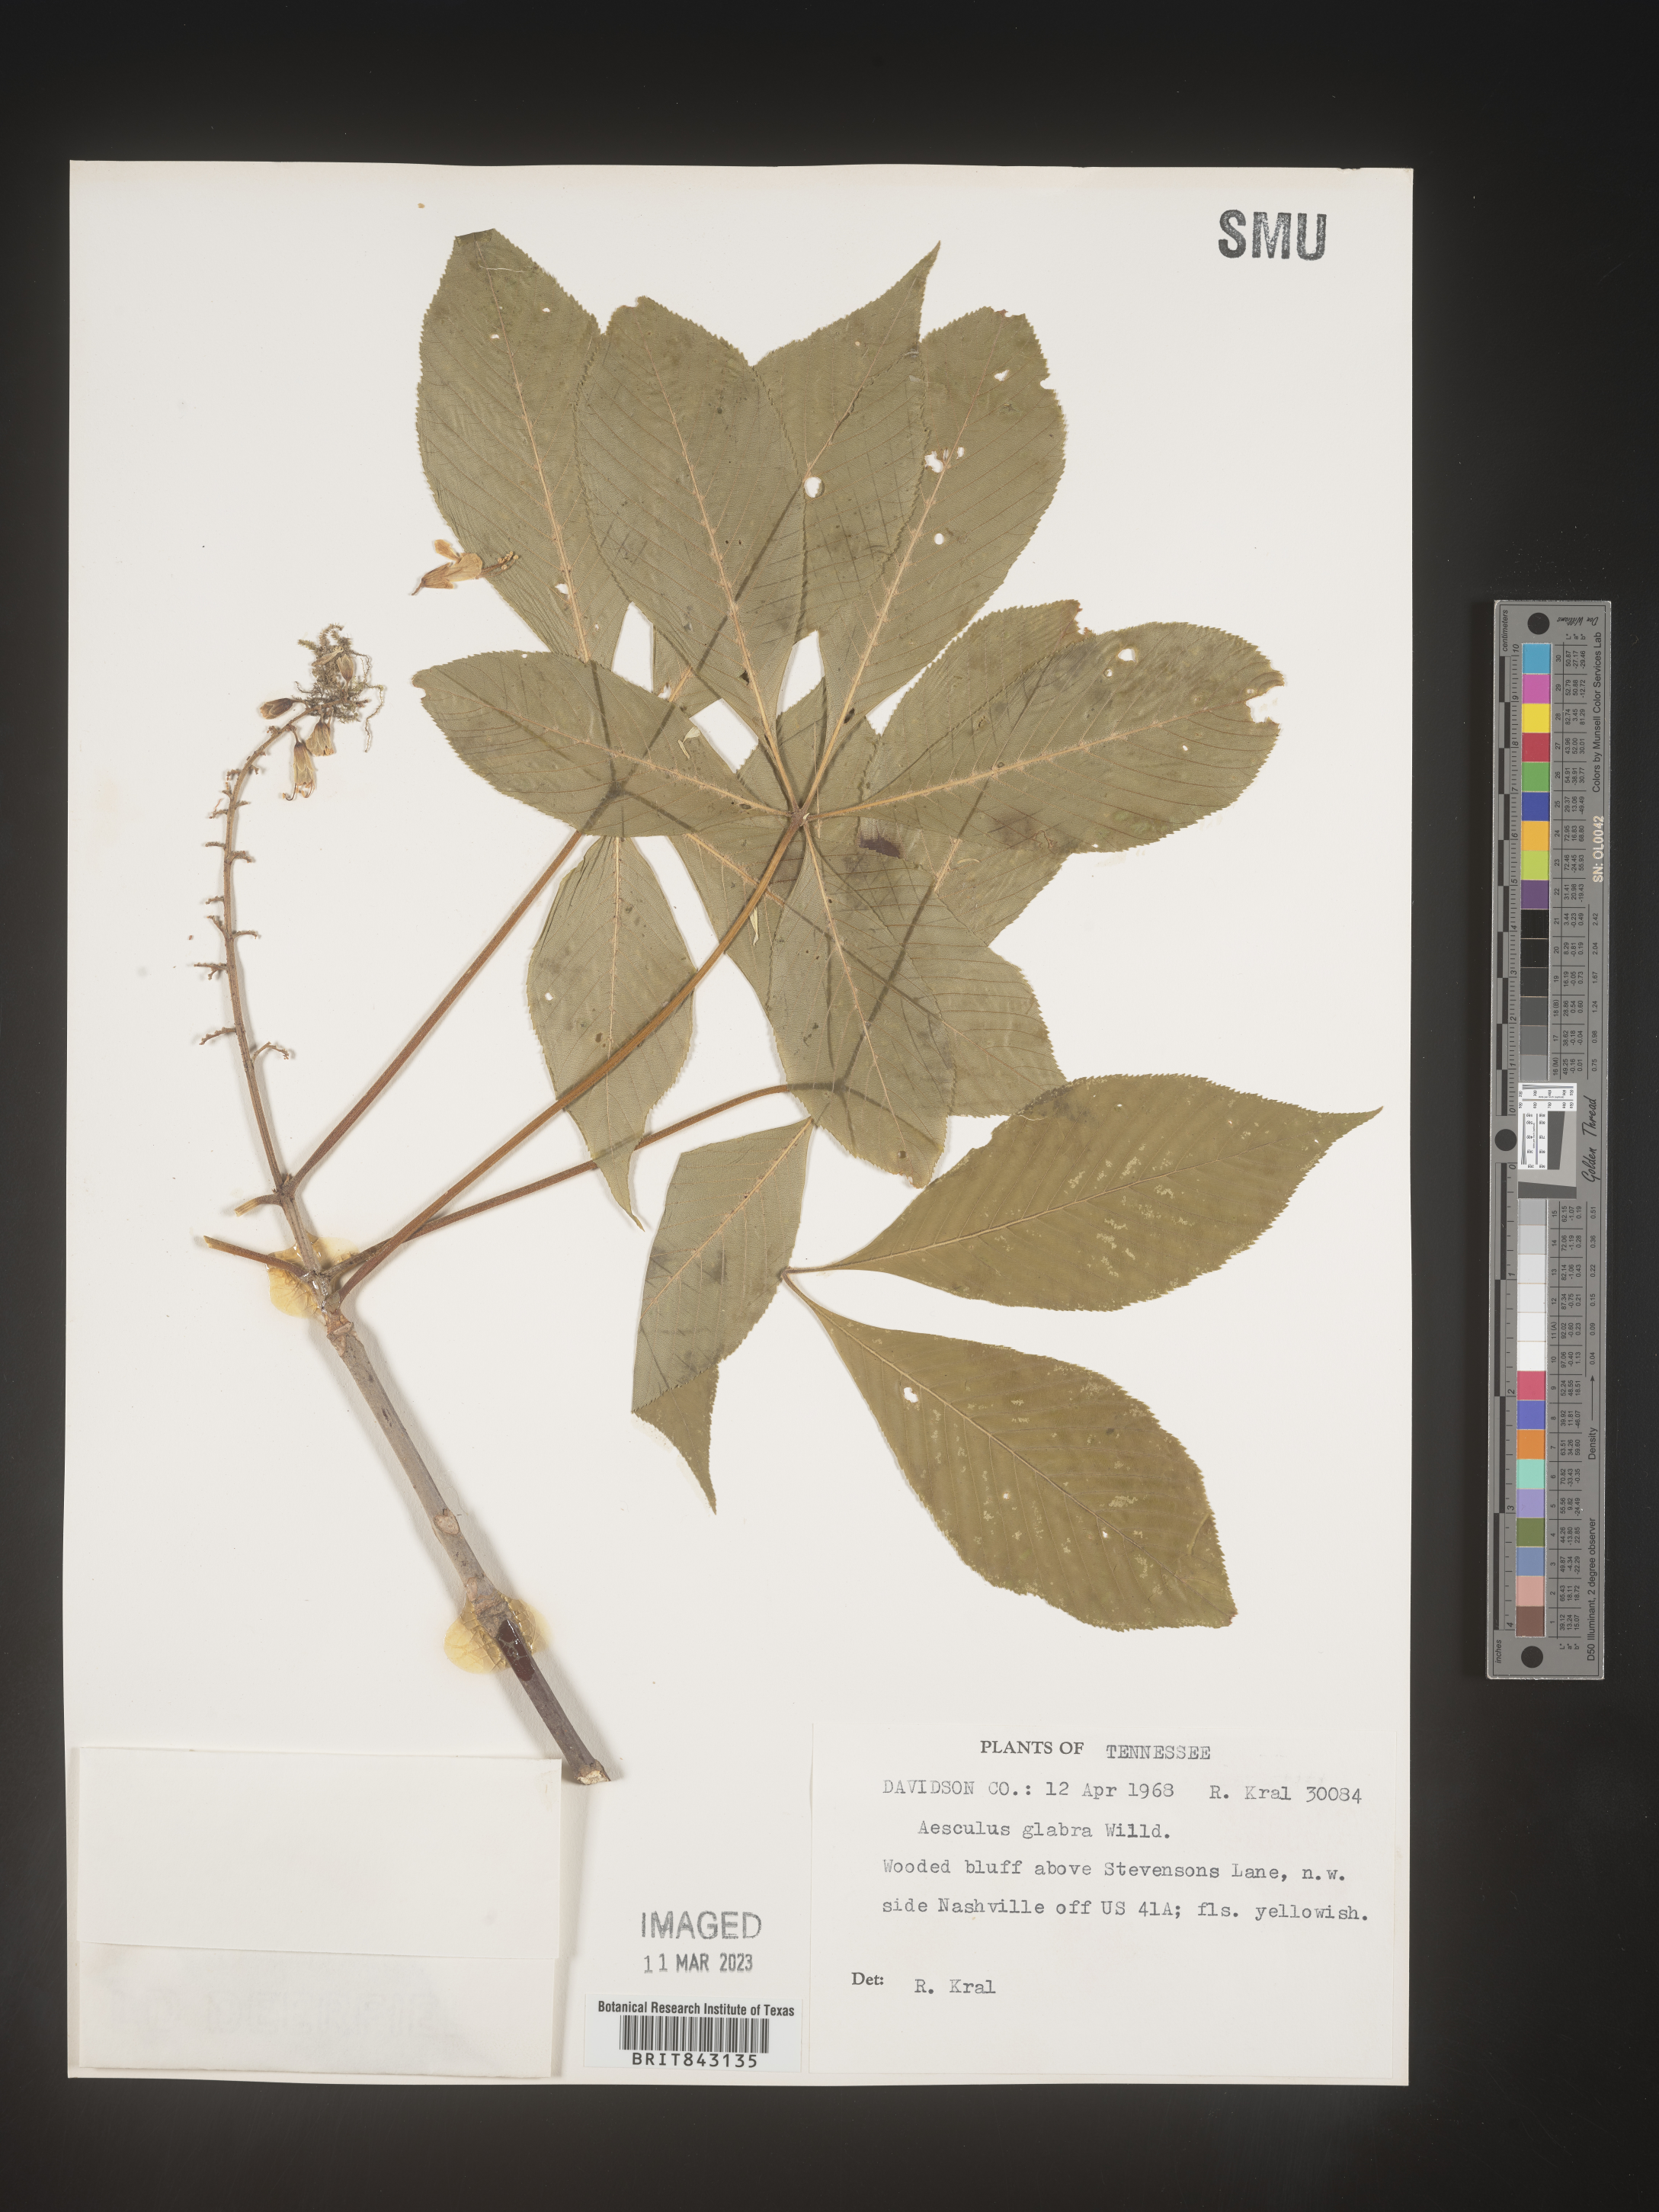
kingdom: Plantae
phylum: Tracheophyta
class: Magnoliopsida
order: Sapindales
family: Sapindaceae
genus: Aesculus
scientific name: Aesculus glabra
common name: Ohio buckeye
